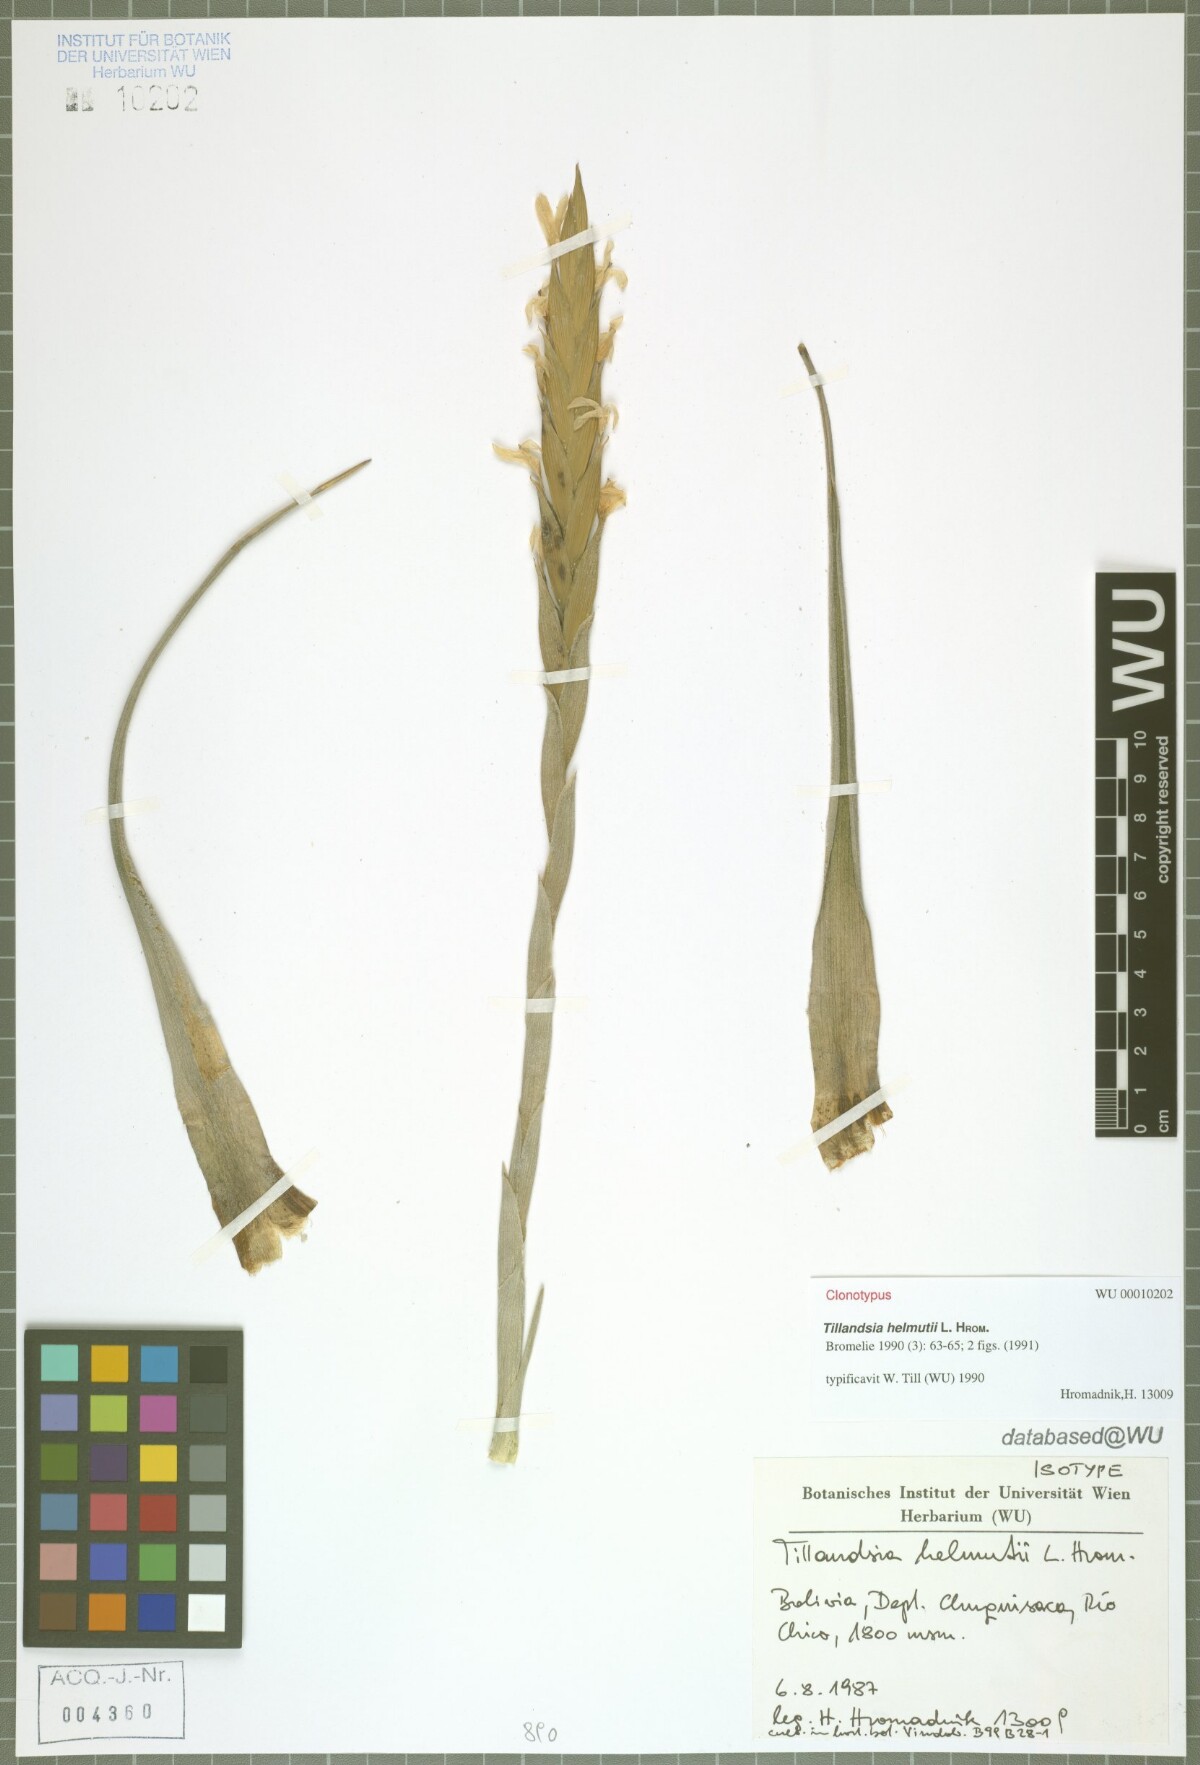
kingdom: Plantae
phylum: Tracheophyta
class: Liliopsida
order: Poales
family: Bromeliaceae
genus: Tillandsia
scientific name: Tillandsia helmutii
